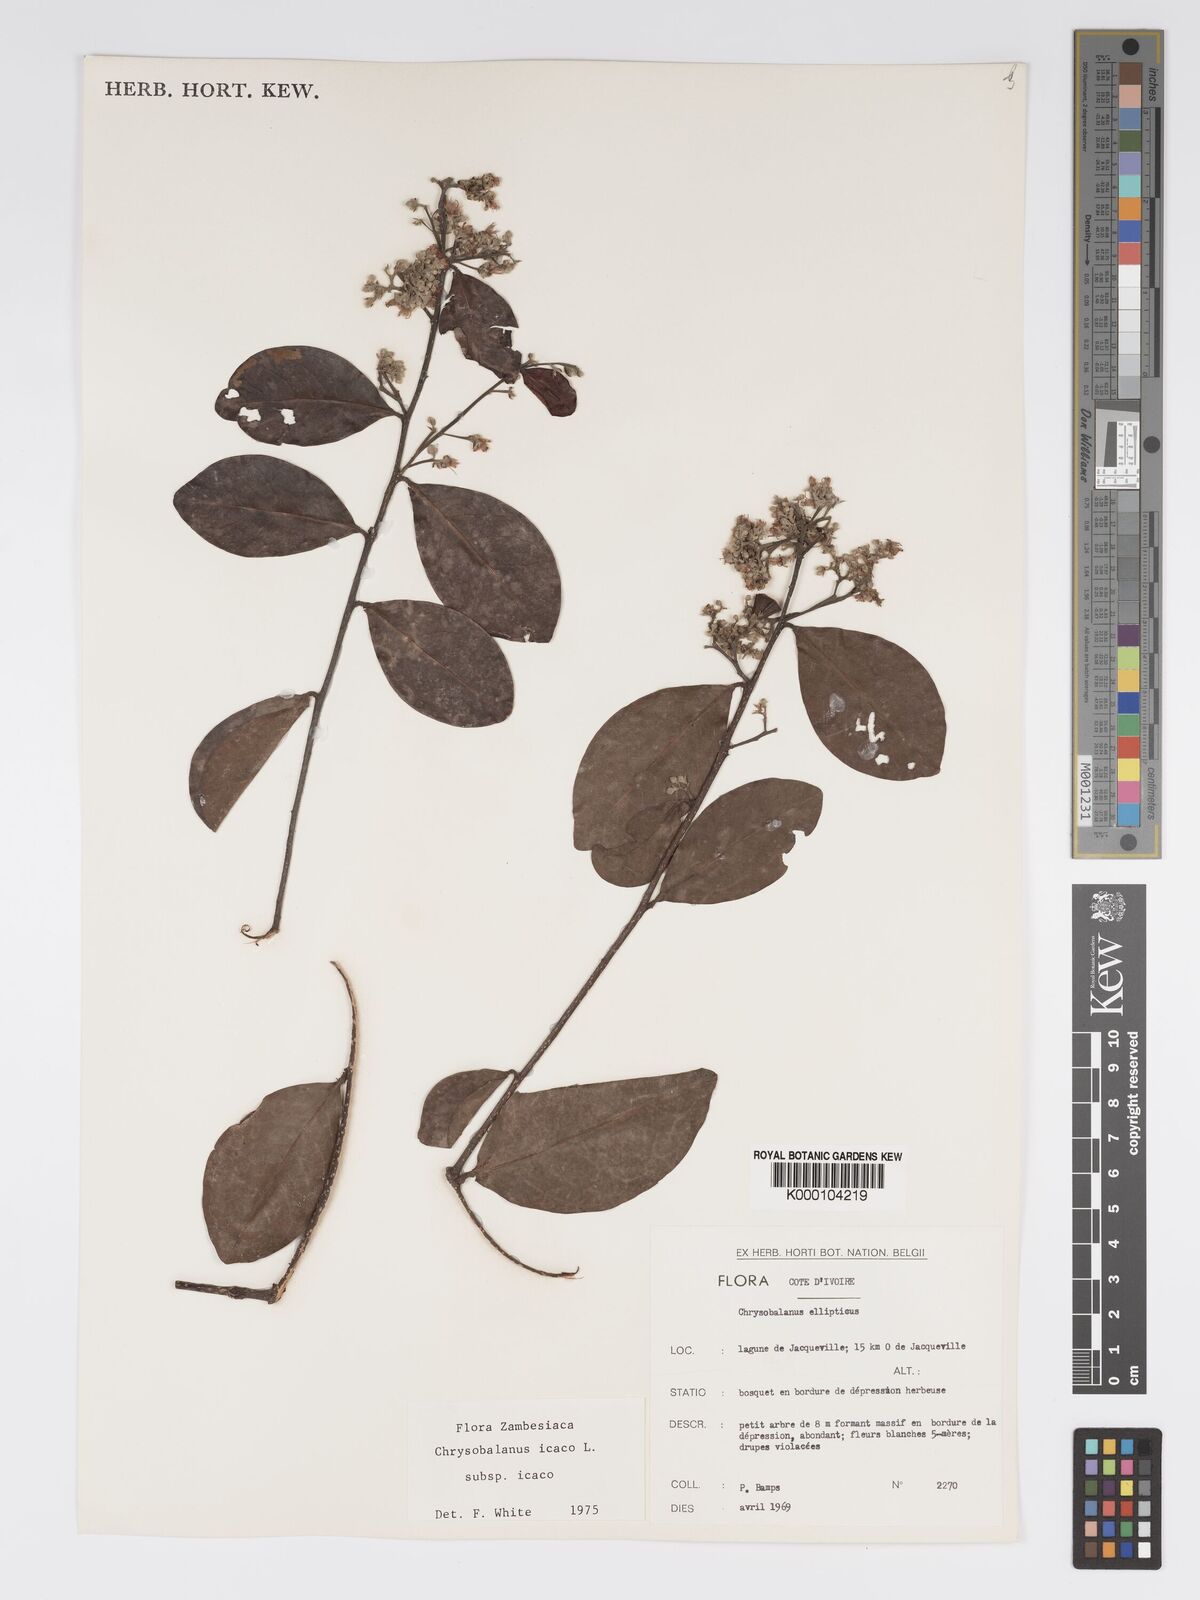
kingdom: Plantae
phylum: Tracheophyta
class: Magnoliopsida
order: Malpighiales
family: Chrysobalanaceae
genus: Chrysobalanus
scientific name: Chrysobalanus icaco
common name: Coco plum
